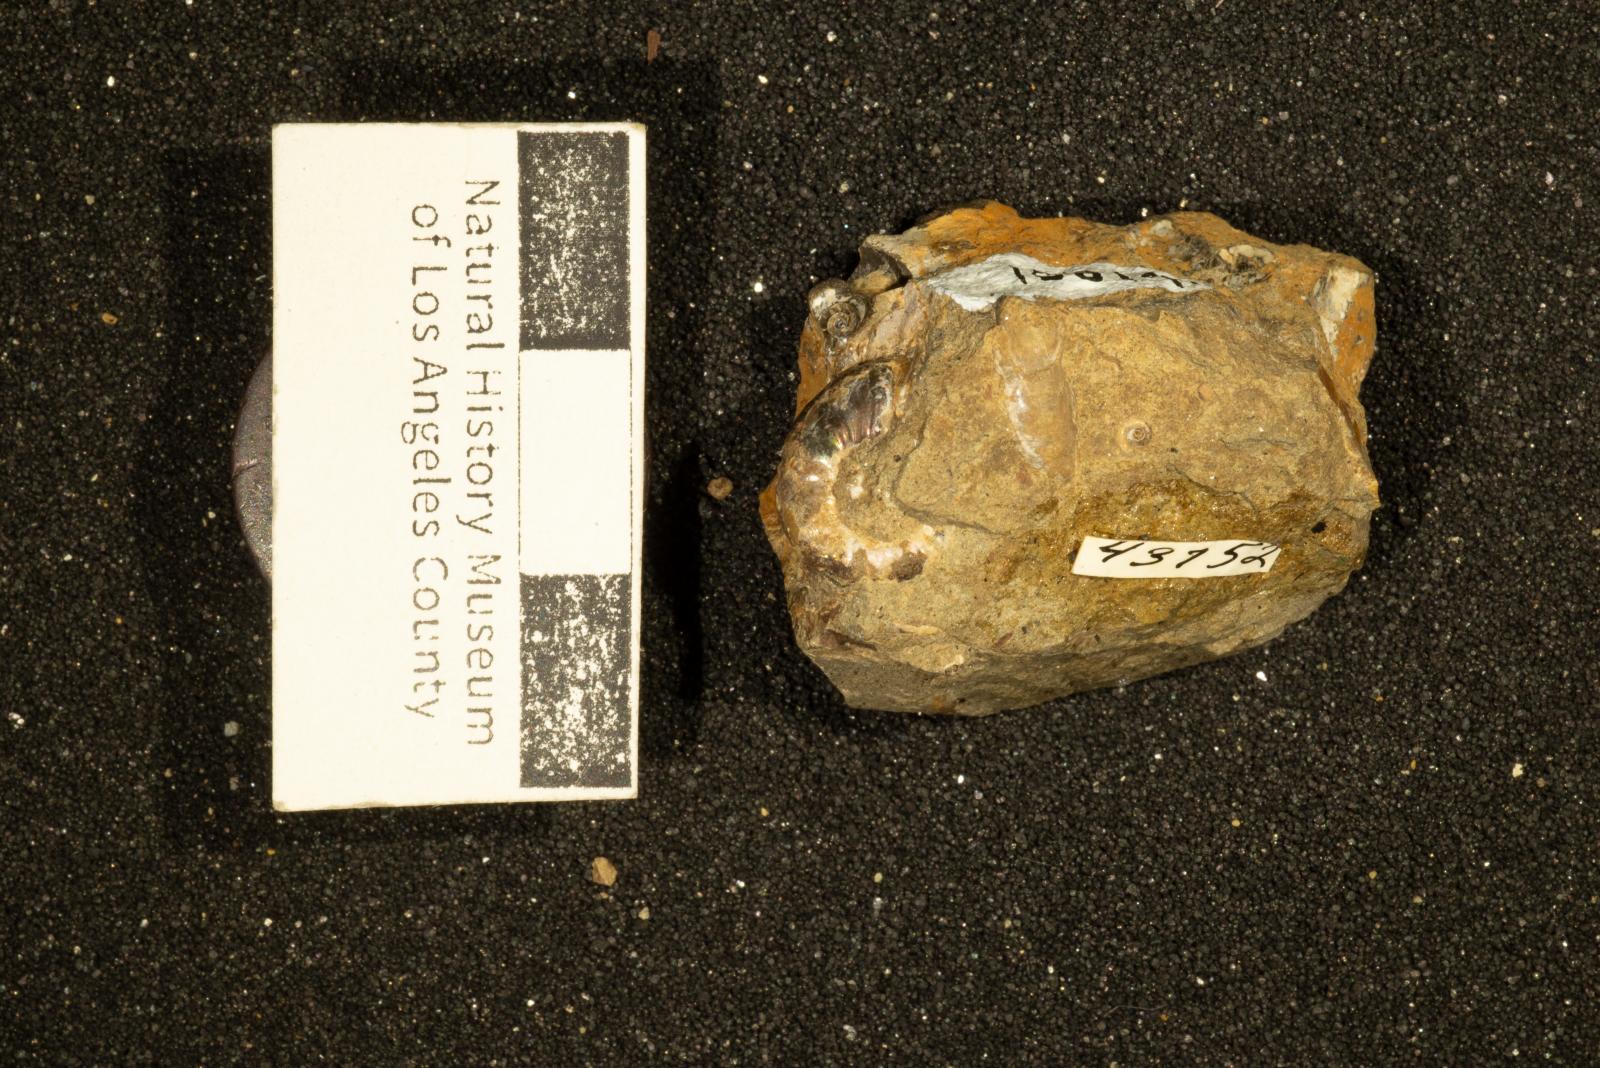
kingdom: Animalia
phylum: Mollusca
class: Cephalopoda
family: Scaphitidae
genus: Yezoites
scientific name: Yezoites puerculus
